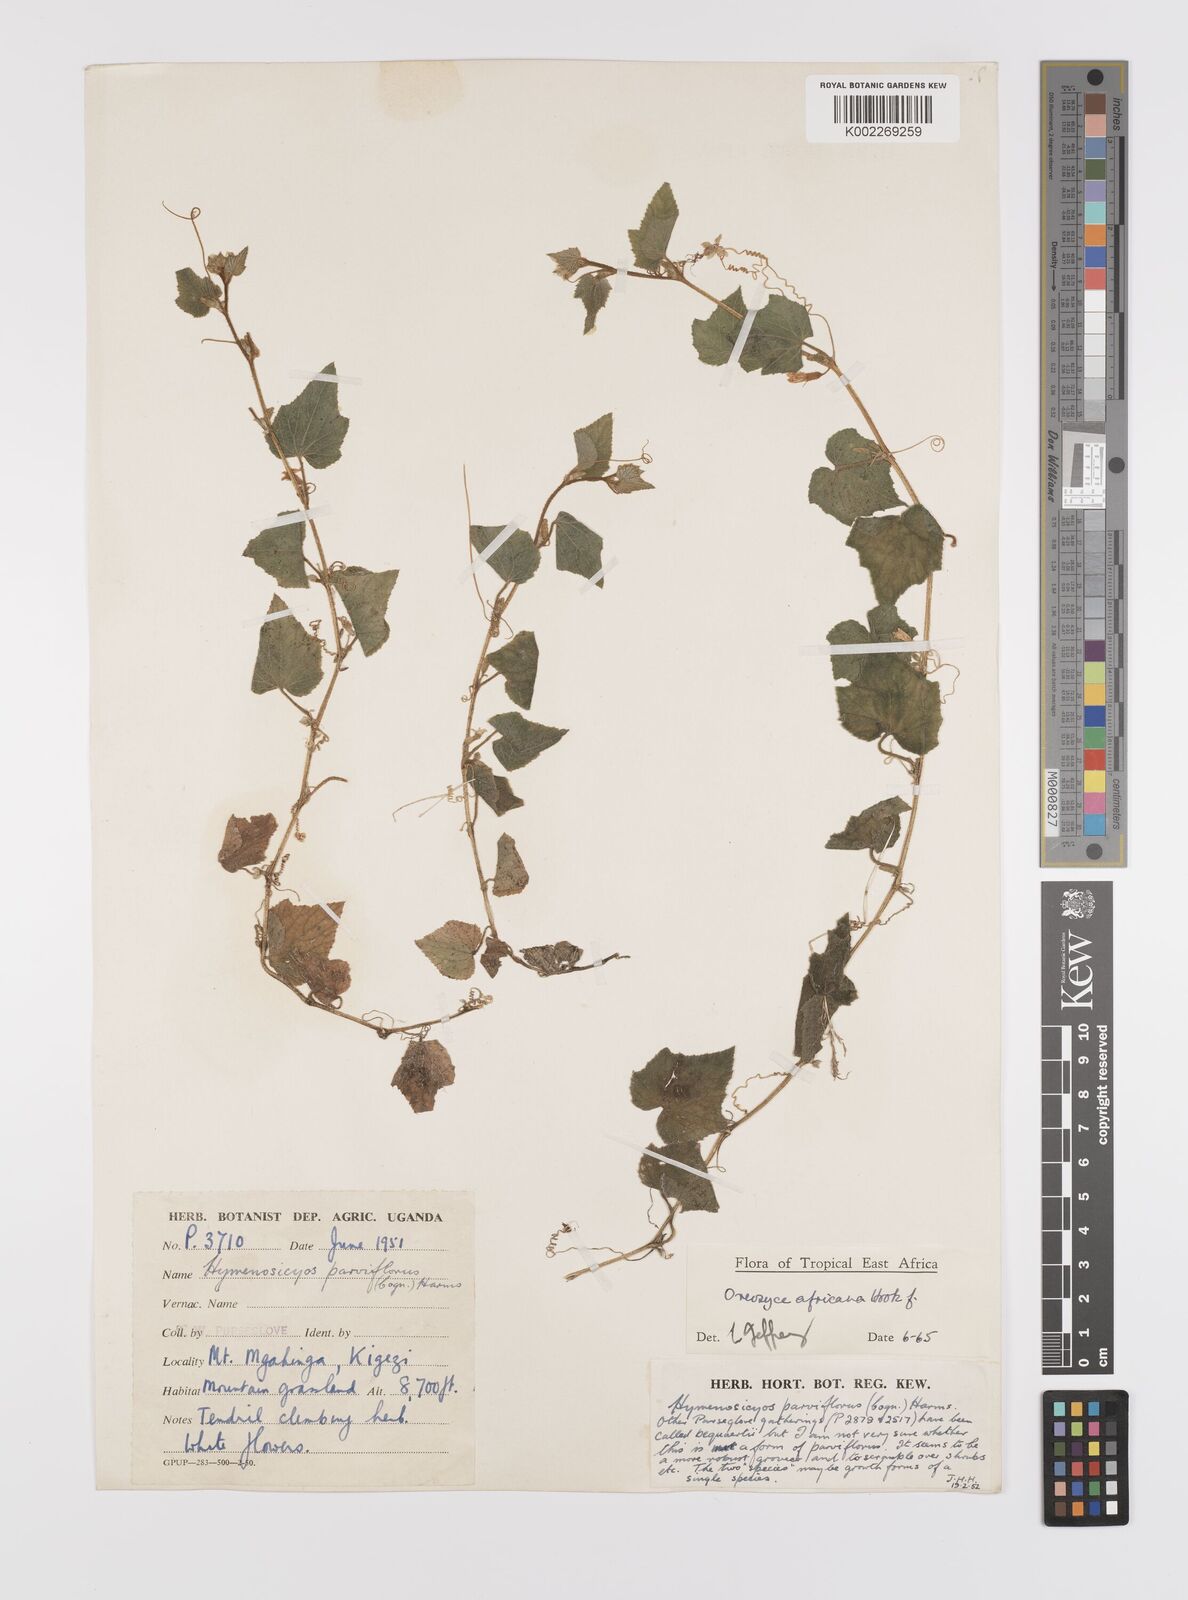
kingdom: Plantae
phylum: Tracheophyta
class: Magnoliopsida
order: Cucurbitales
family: Cucurbitaceae
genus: Cucumis
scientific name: Cucumis oreosyce
